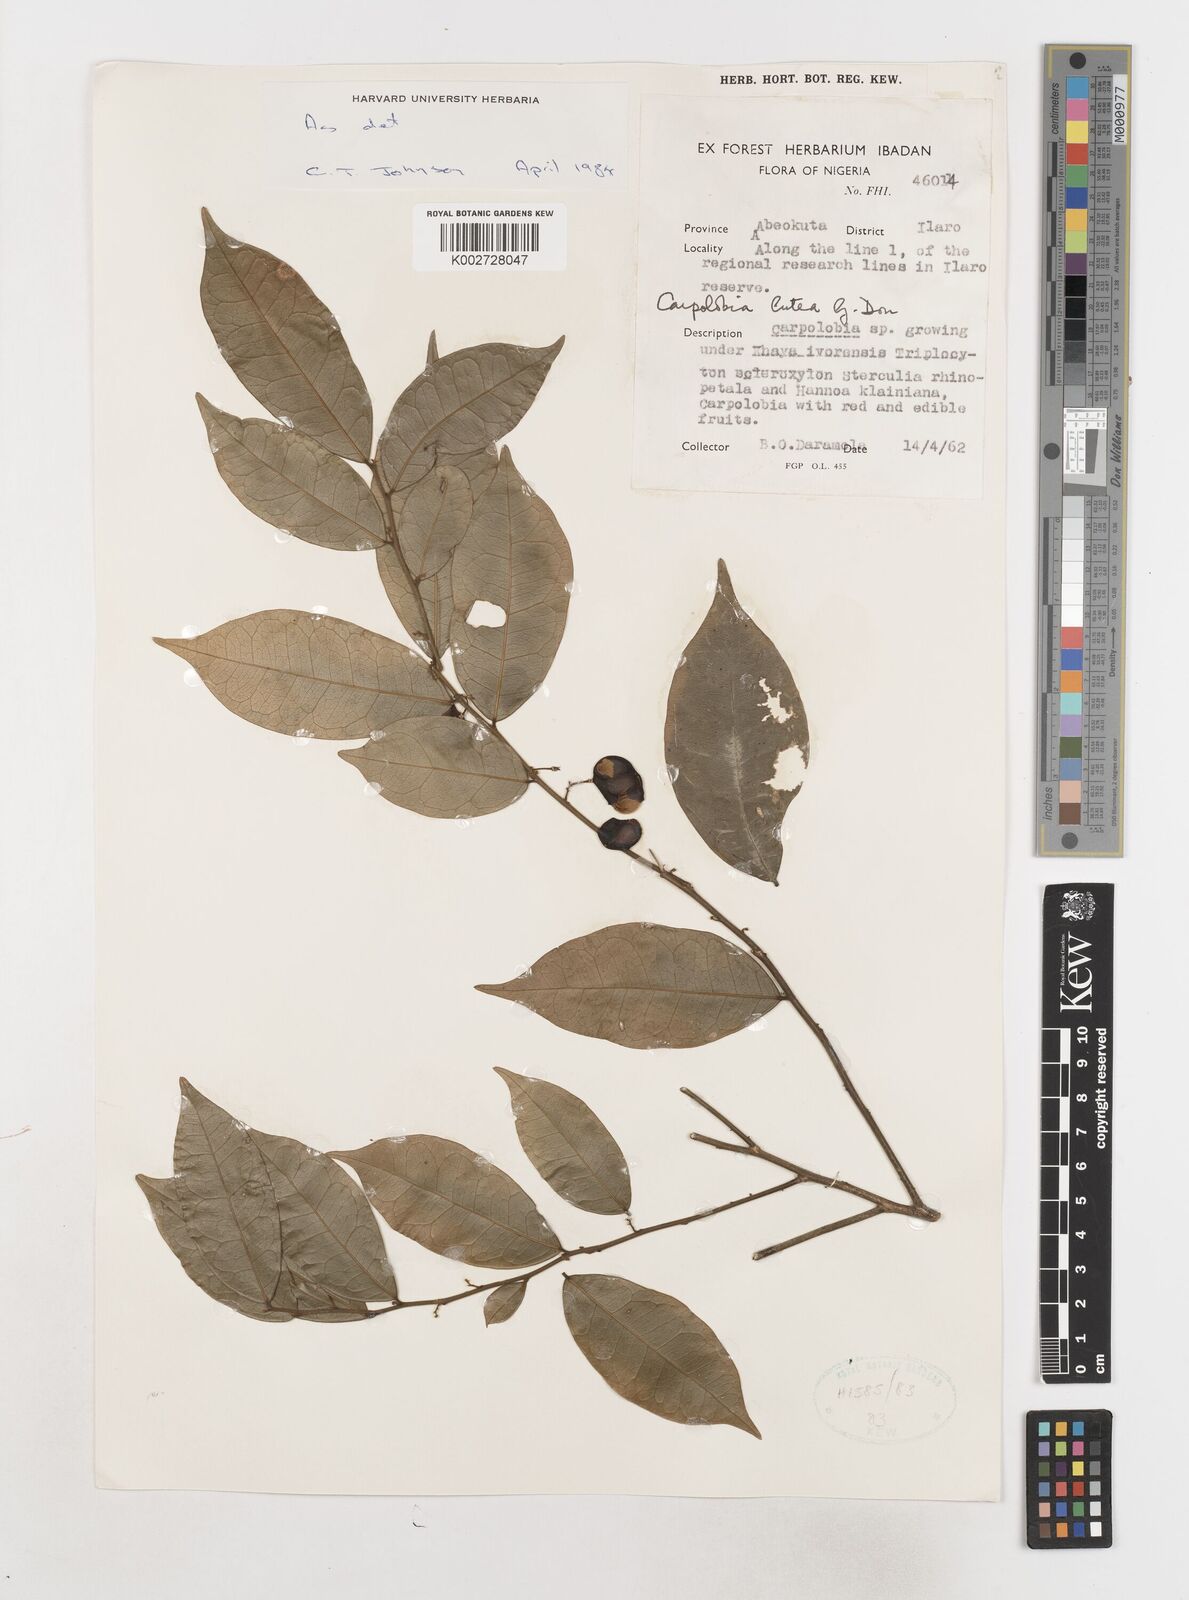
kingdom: Plantae
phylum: Tracheophyta
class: Magnoliopsida
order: Fabales
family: Polygalaceae
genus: Carpolobia
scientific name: Carpolobia lutea
